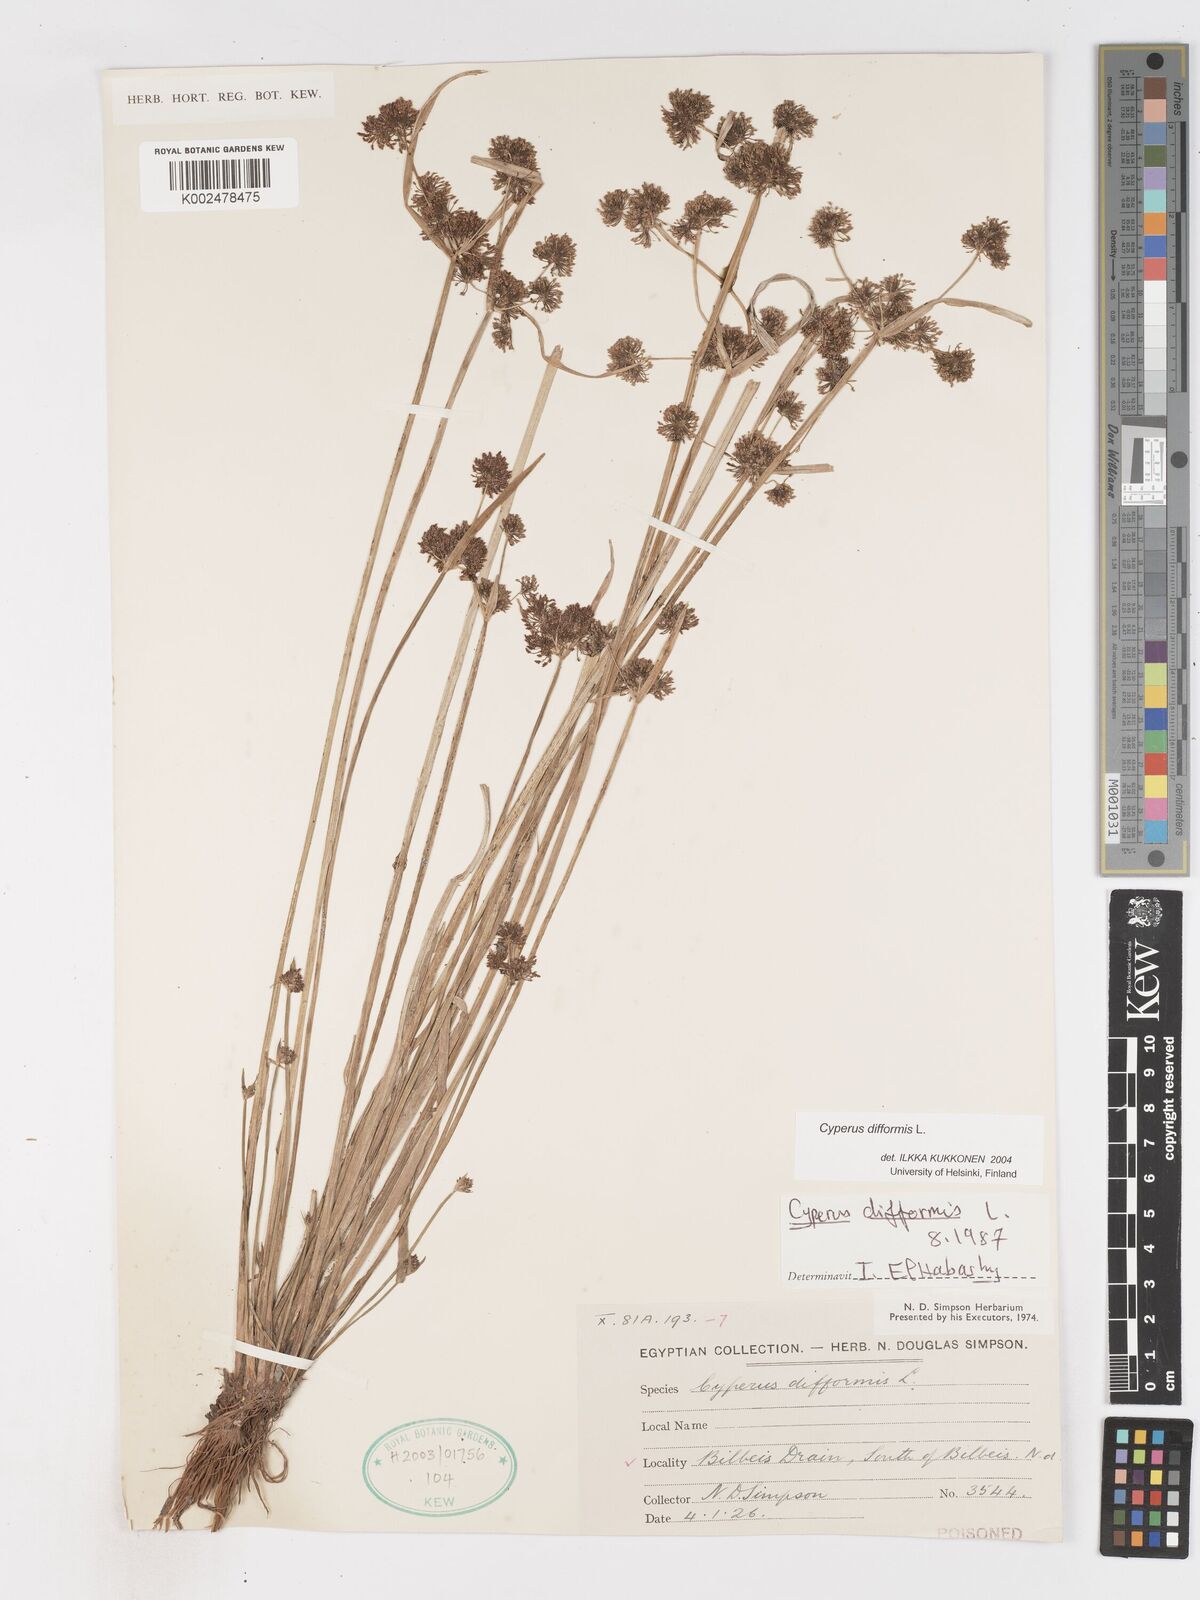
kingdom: Plantae
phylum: Tracheophyta
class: Liliopsida
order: Poales
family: Cyperaceae
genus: Cyperus
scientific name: Cyperus difformis
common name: Variable flatsedge
